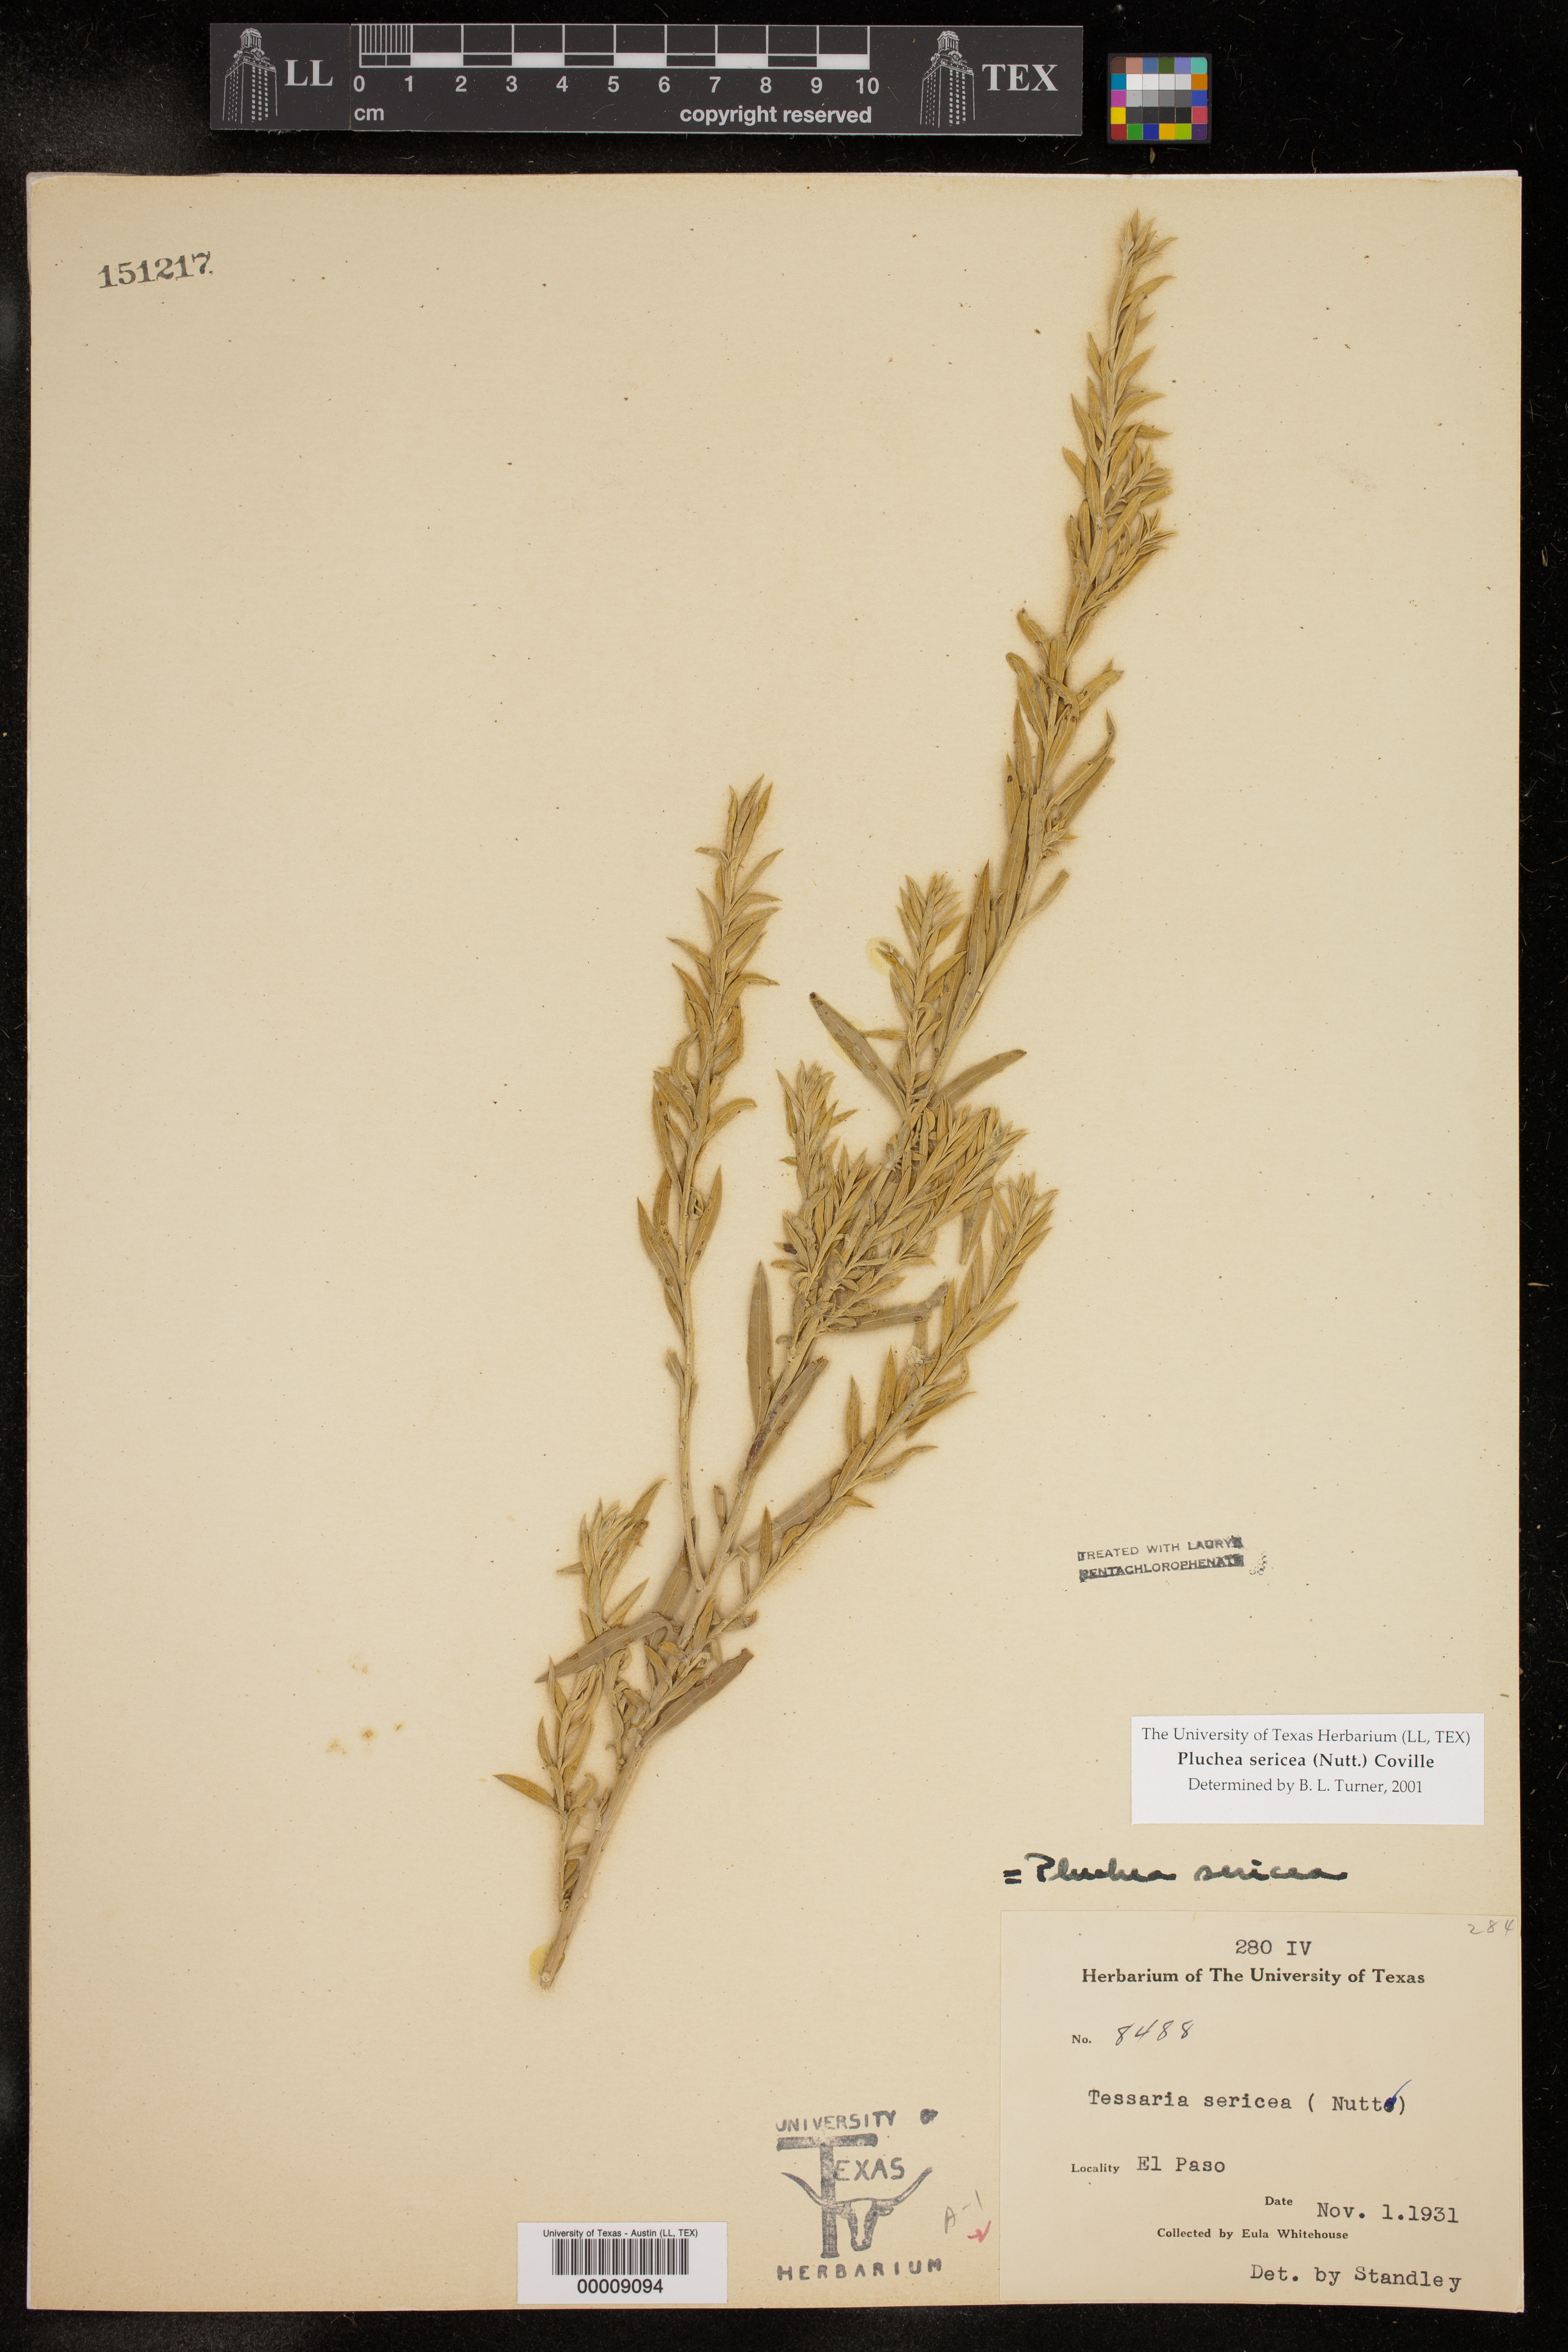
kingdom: Plantae
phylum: Tracheophyta
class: Magnoliopsida
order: Asterales
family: Asteraceae
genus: Pluchea
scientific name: Pluchea sericea
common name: Arrow-weed
